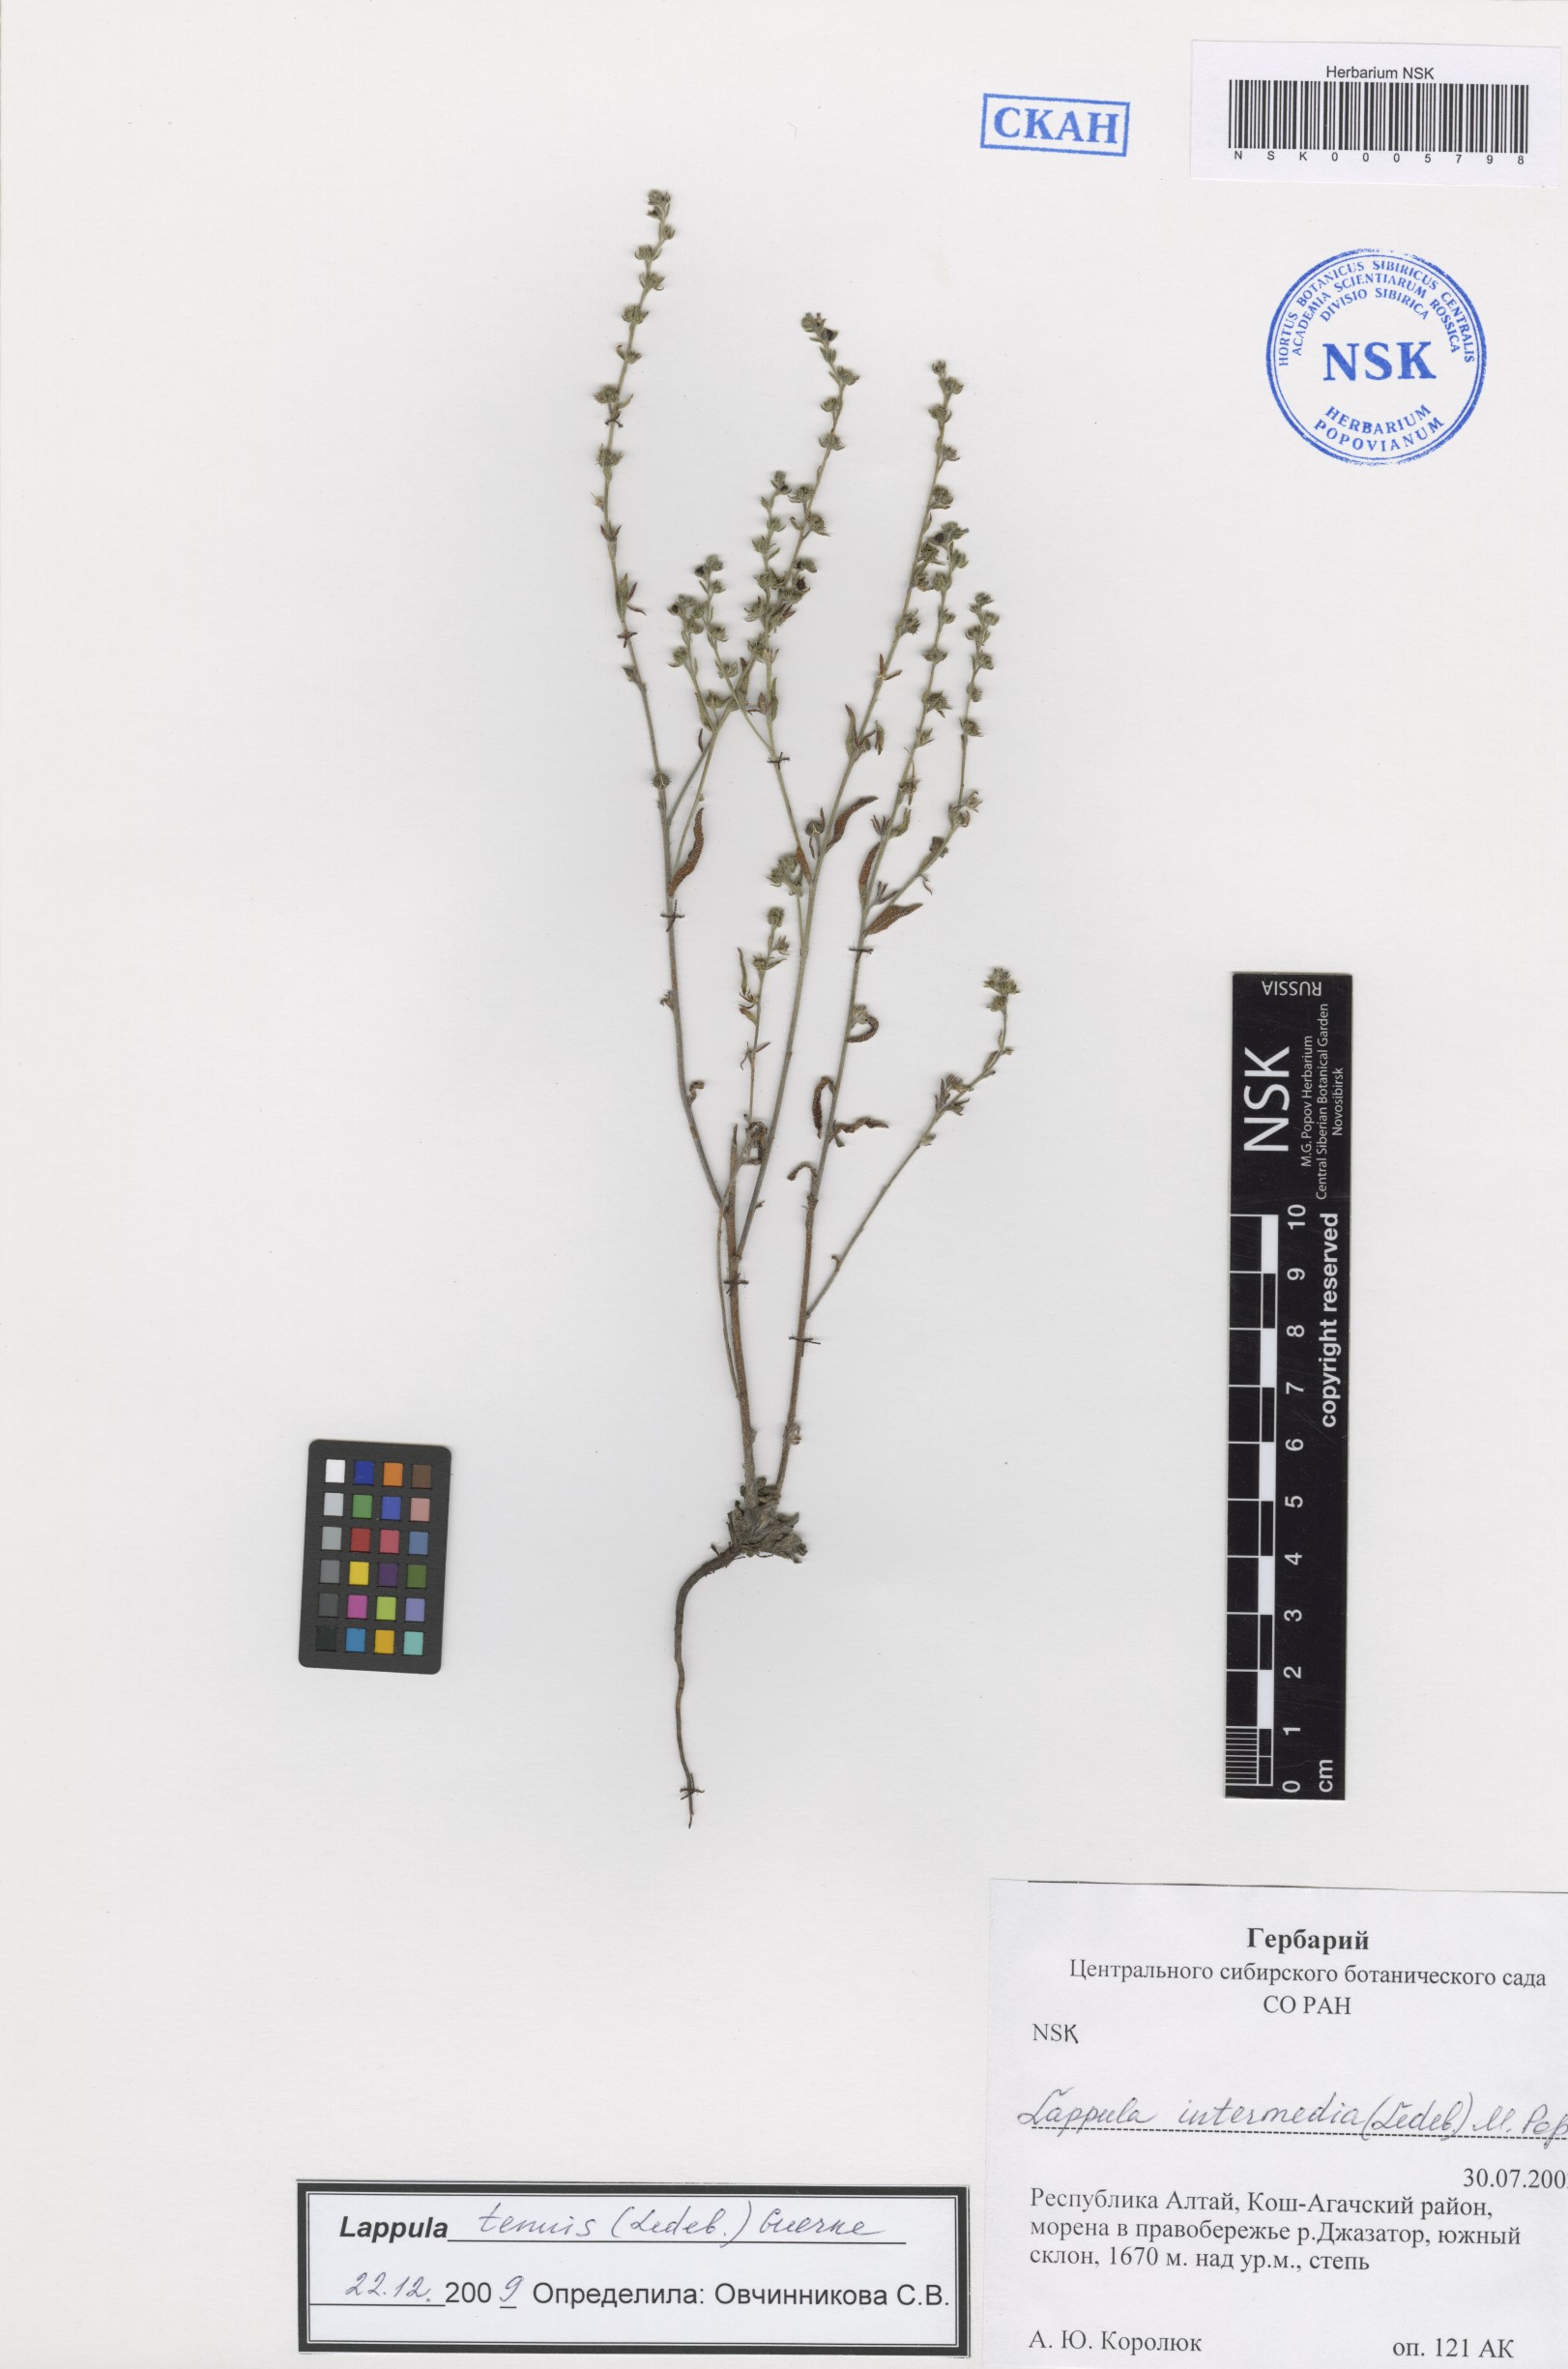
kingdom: Plantae
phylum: Tracheophyta
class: Magnoliopsida
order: Boraginales
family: Boraginaceae
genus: Lappula
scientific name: Lappula tenuis
